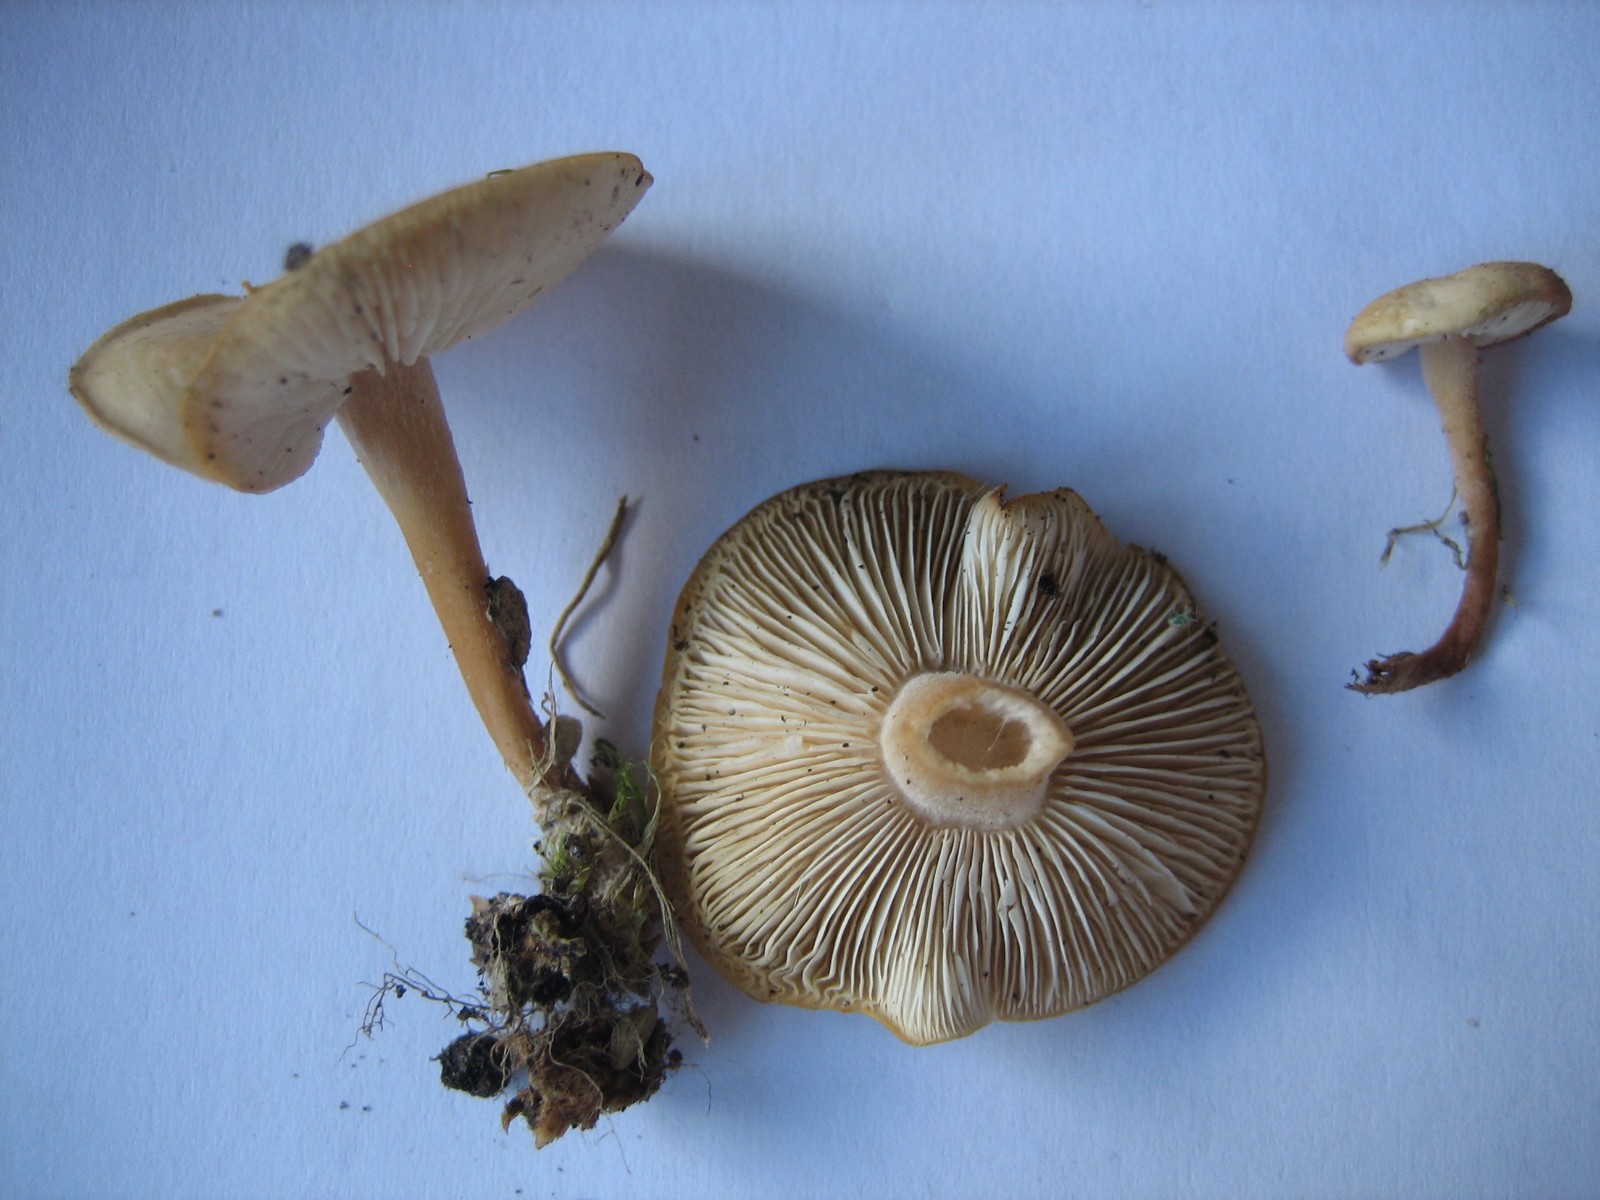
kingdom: Fungi
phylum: Basidiomycota
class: Agaricomycetes
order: Agaricales
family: Tricholomataceae
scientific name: Tricholomataceae
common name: ridderhatfamilien
